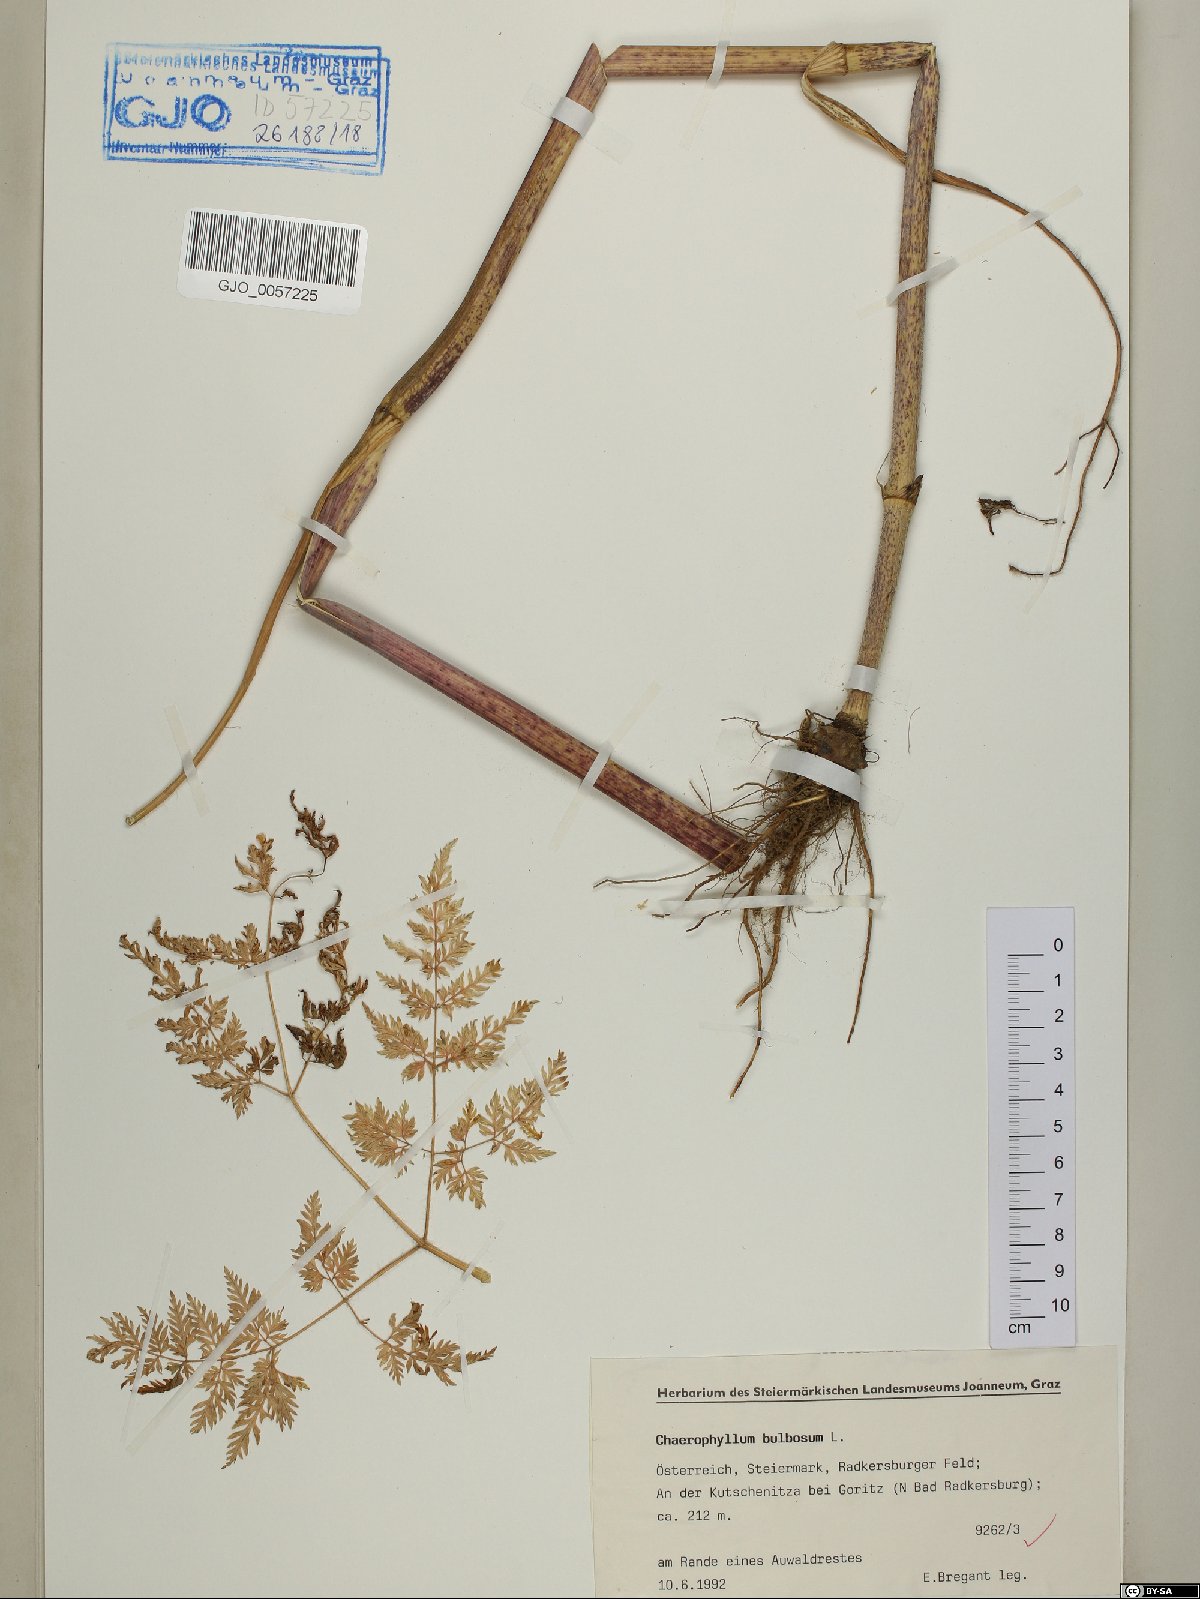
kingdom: Plantae
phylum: Tracheophyta
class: Magnoliopsida
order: Apiales
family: Apiaceae
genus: Chaerophyllum
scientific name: Chaerophyllum bulbosum
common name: Bulbous chervil
